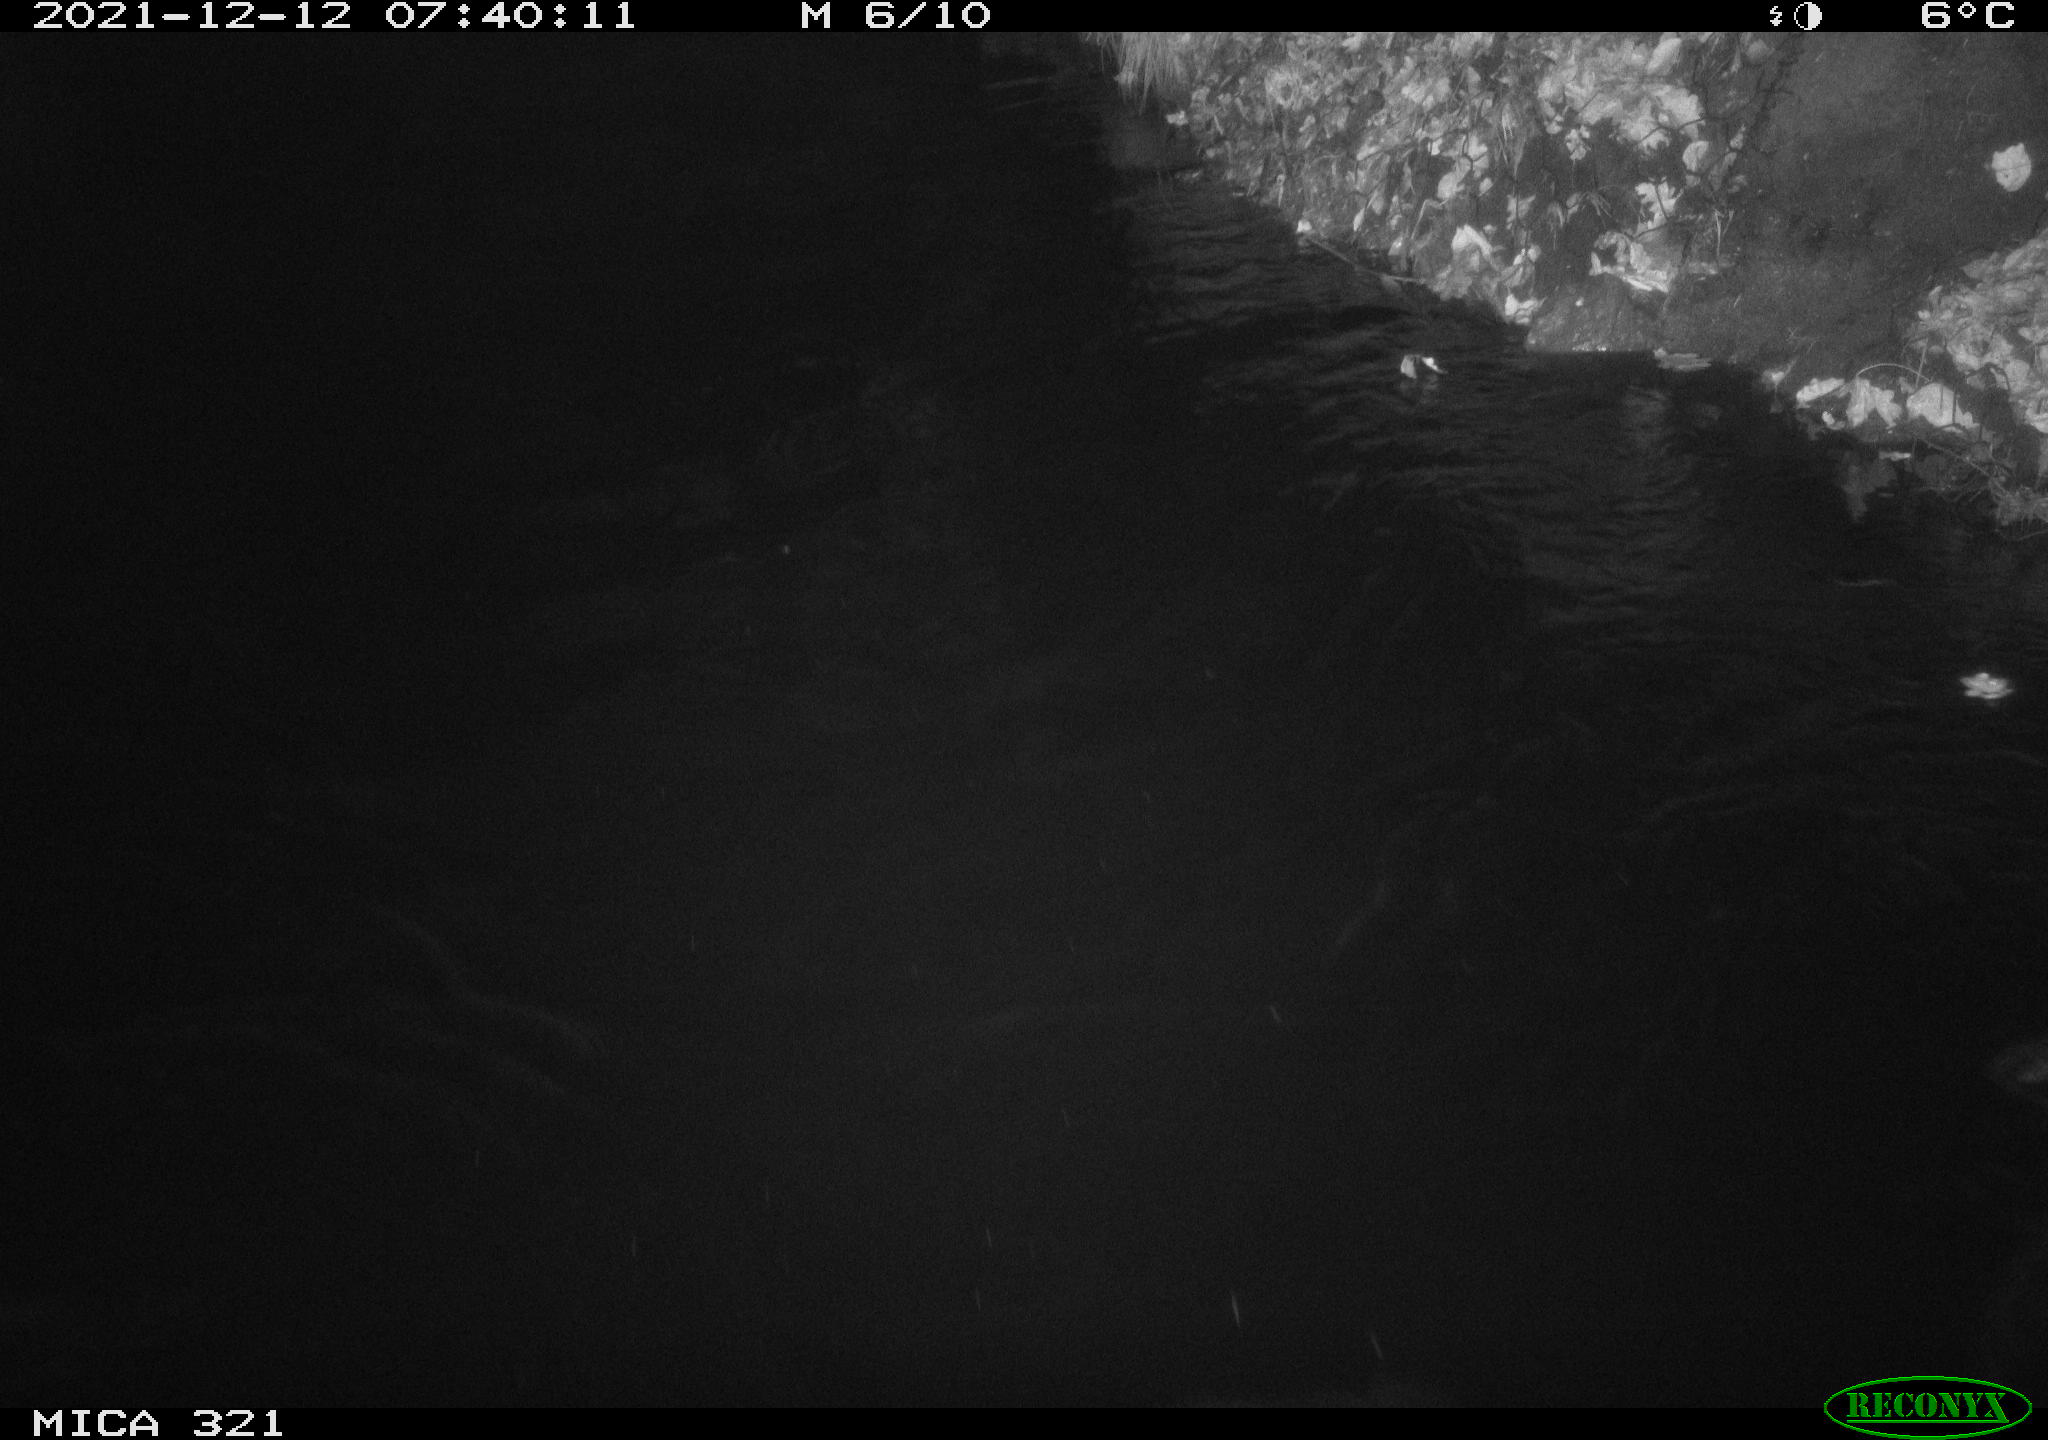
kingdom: Animalia
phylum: Chordata
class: Aves
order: Anseriformes
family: Anatidae
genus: Anas
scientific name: Anas platyrhynchos
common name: Mallard
